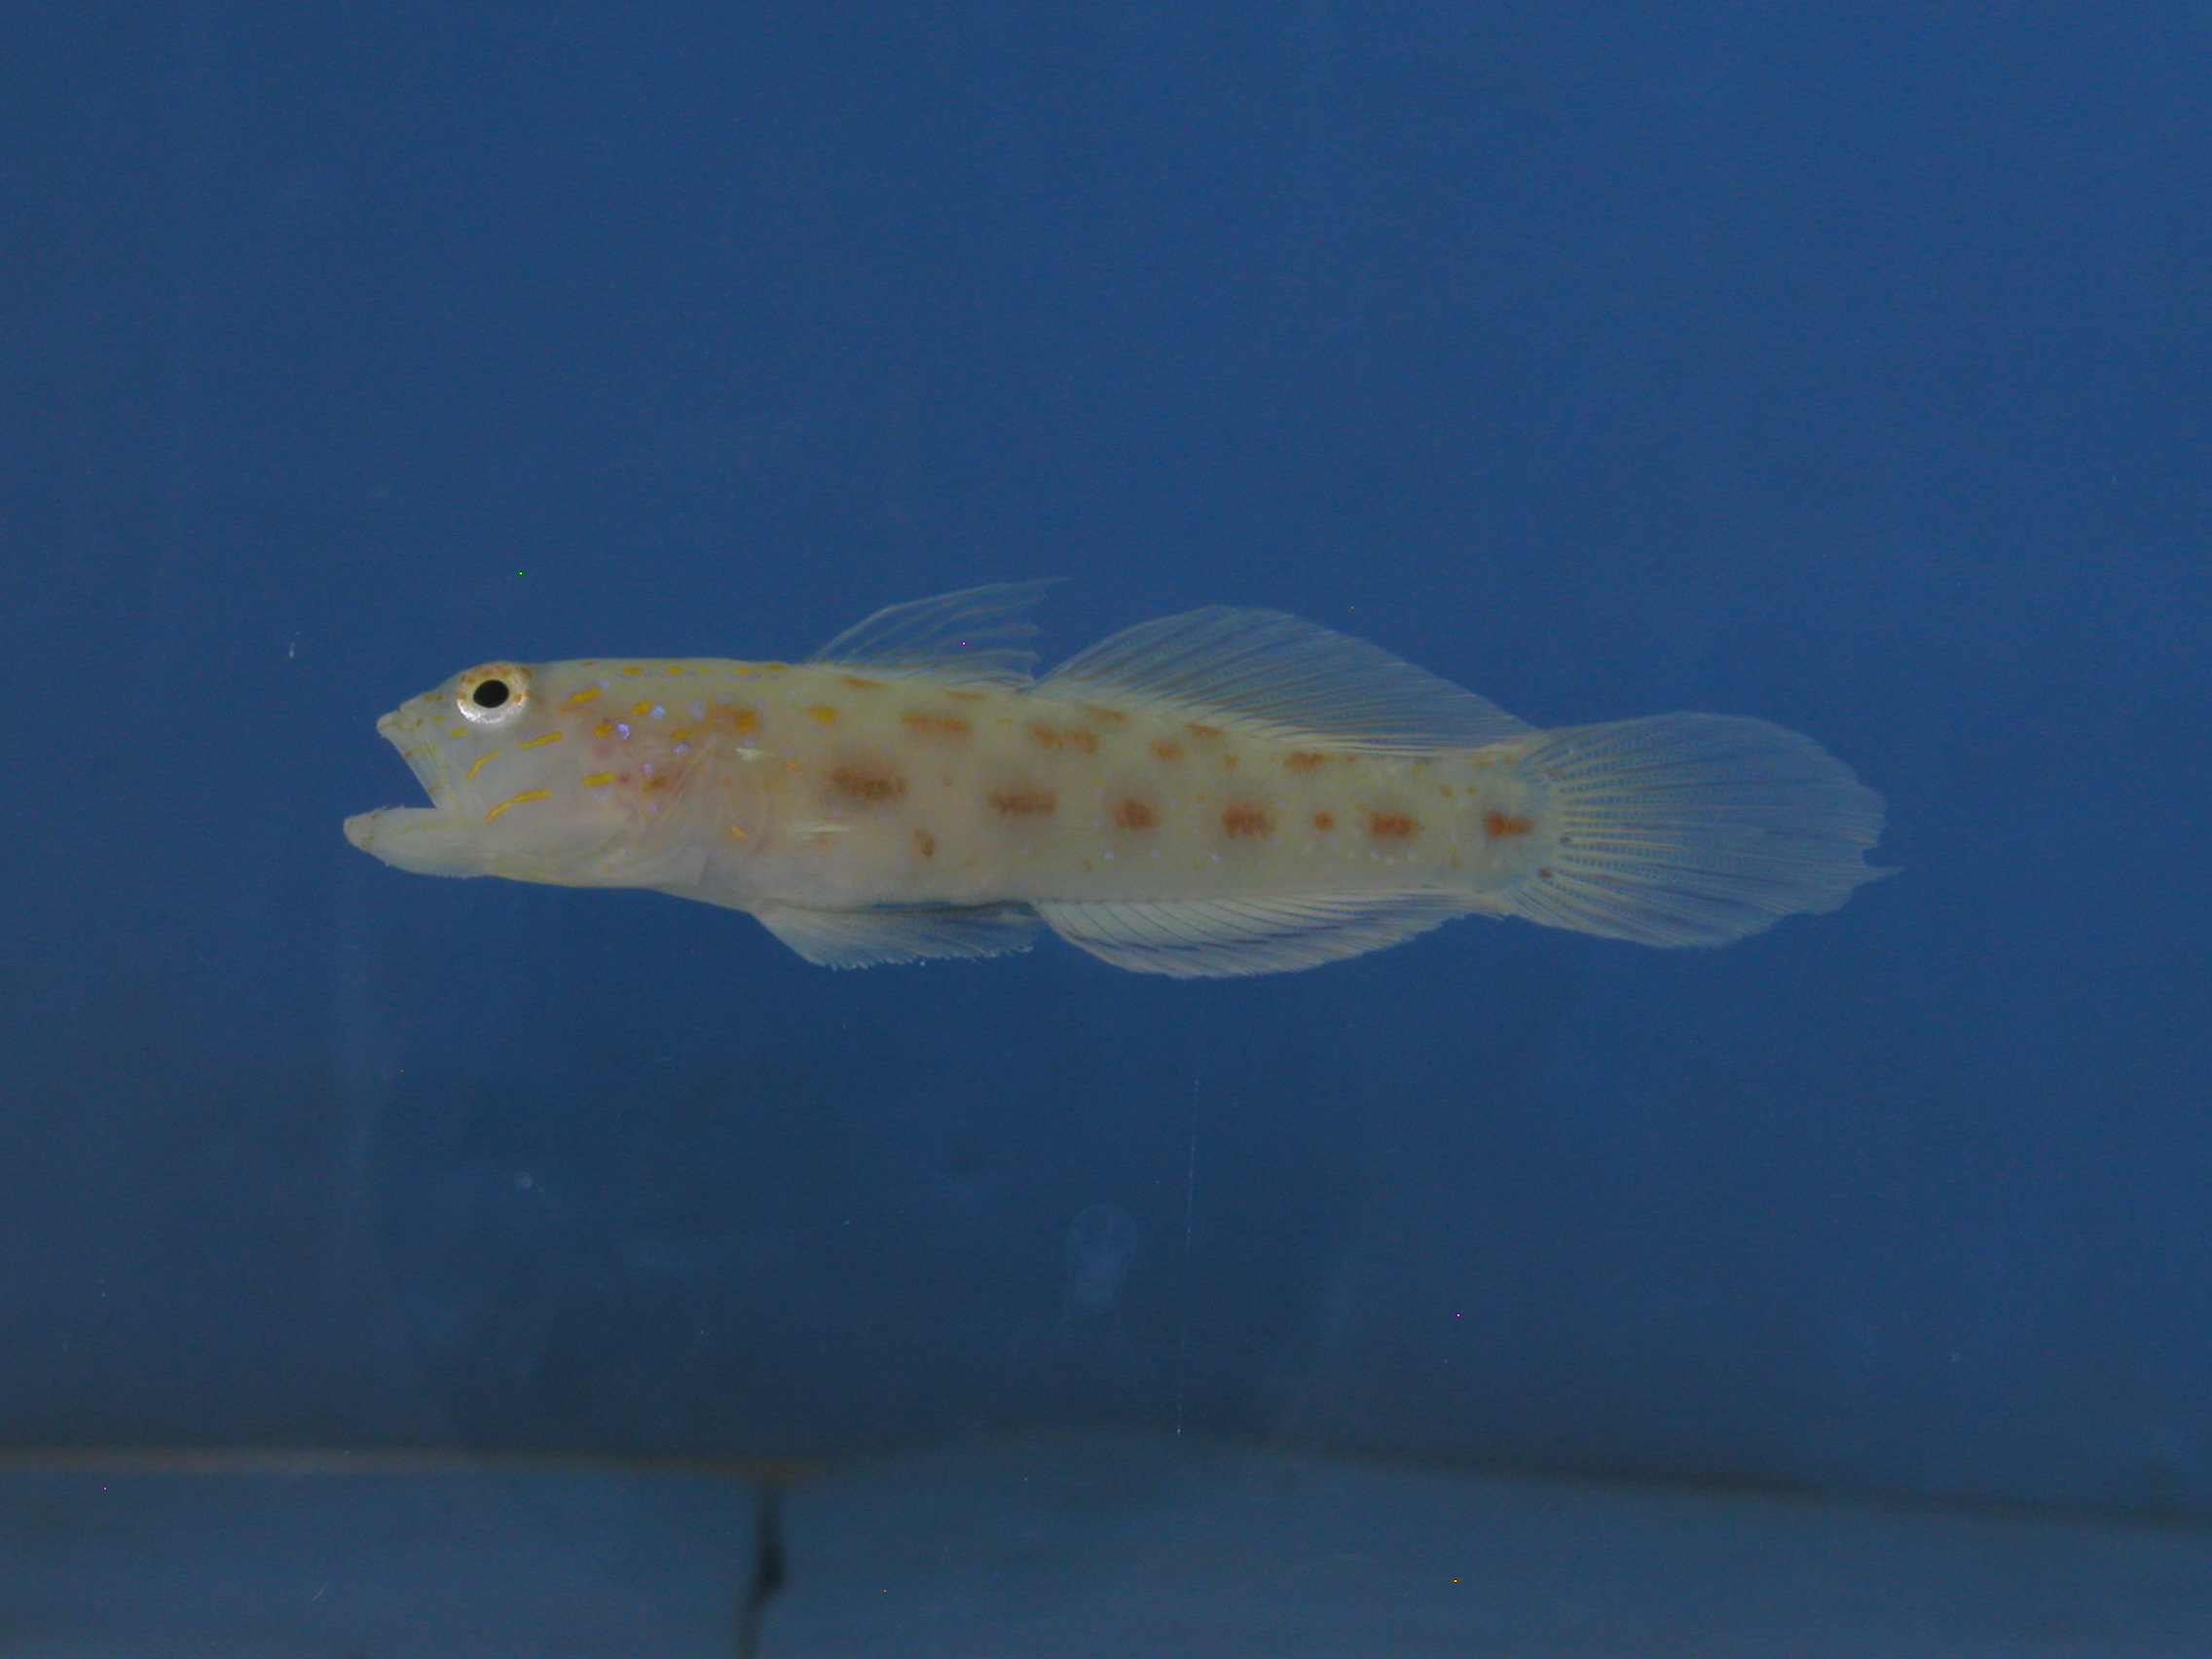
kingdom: Animalia
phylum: Chordata
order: Perciformes
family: Gobiidae
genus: Ctenogobiops
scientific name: Ctenogobiops crocineus
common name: Silverspot shrimpgoby
